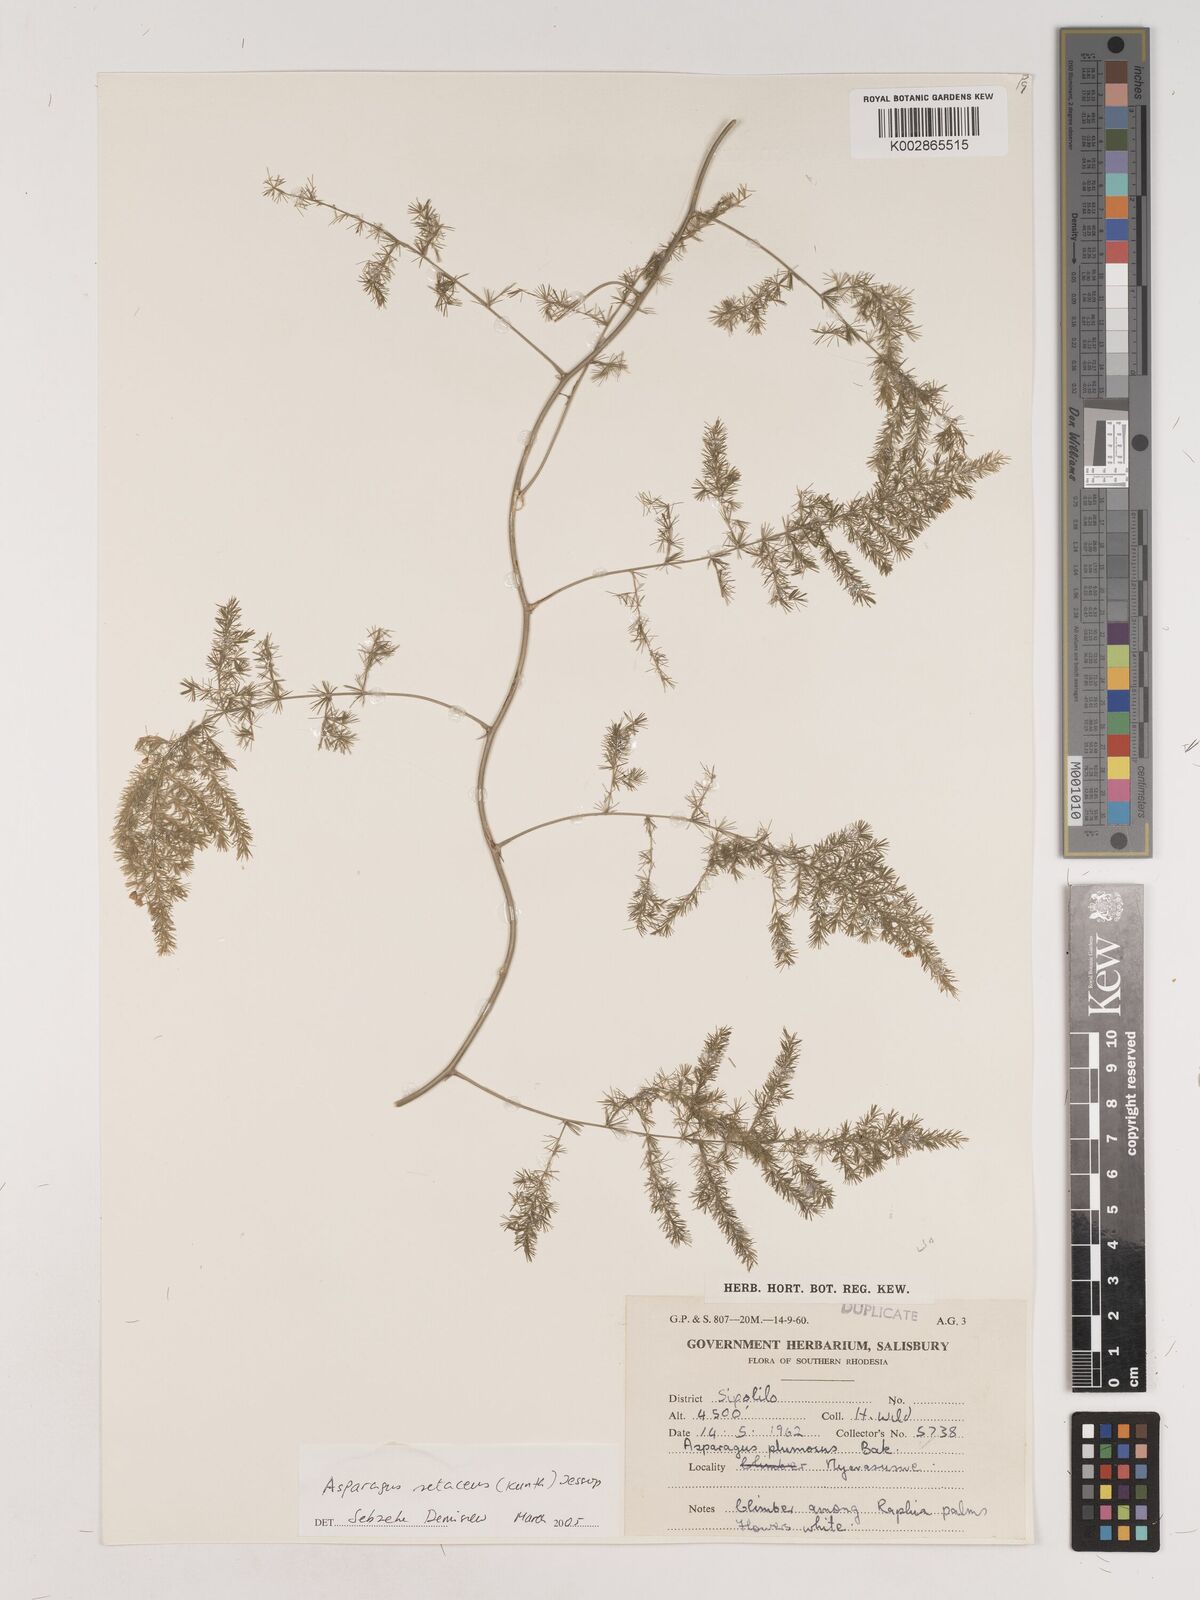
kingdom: Plantae
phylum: Tracheophyta
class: Liliopsida
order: Asparagales
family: Asparagaceae
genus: Asparagus
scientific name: Asparagus setaceus
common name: Common asparagus fern
